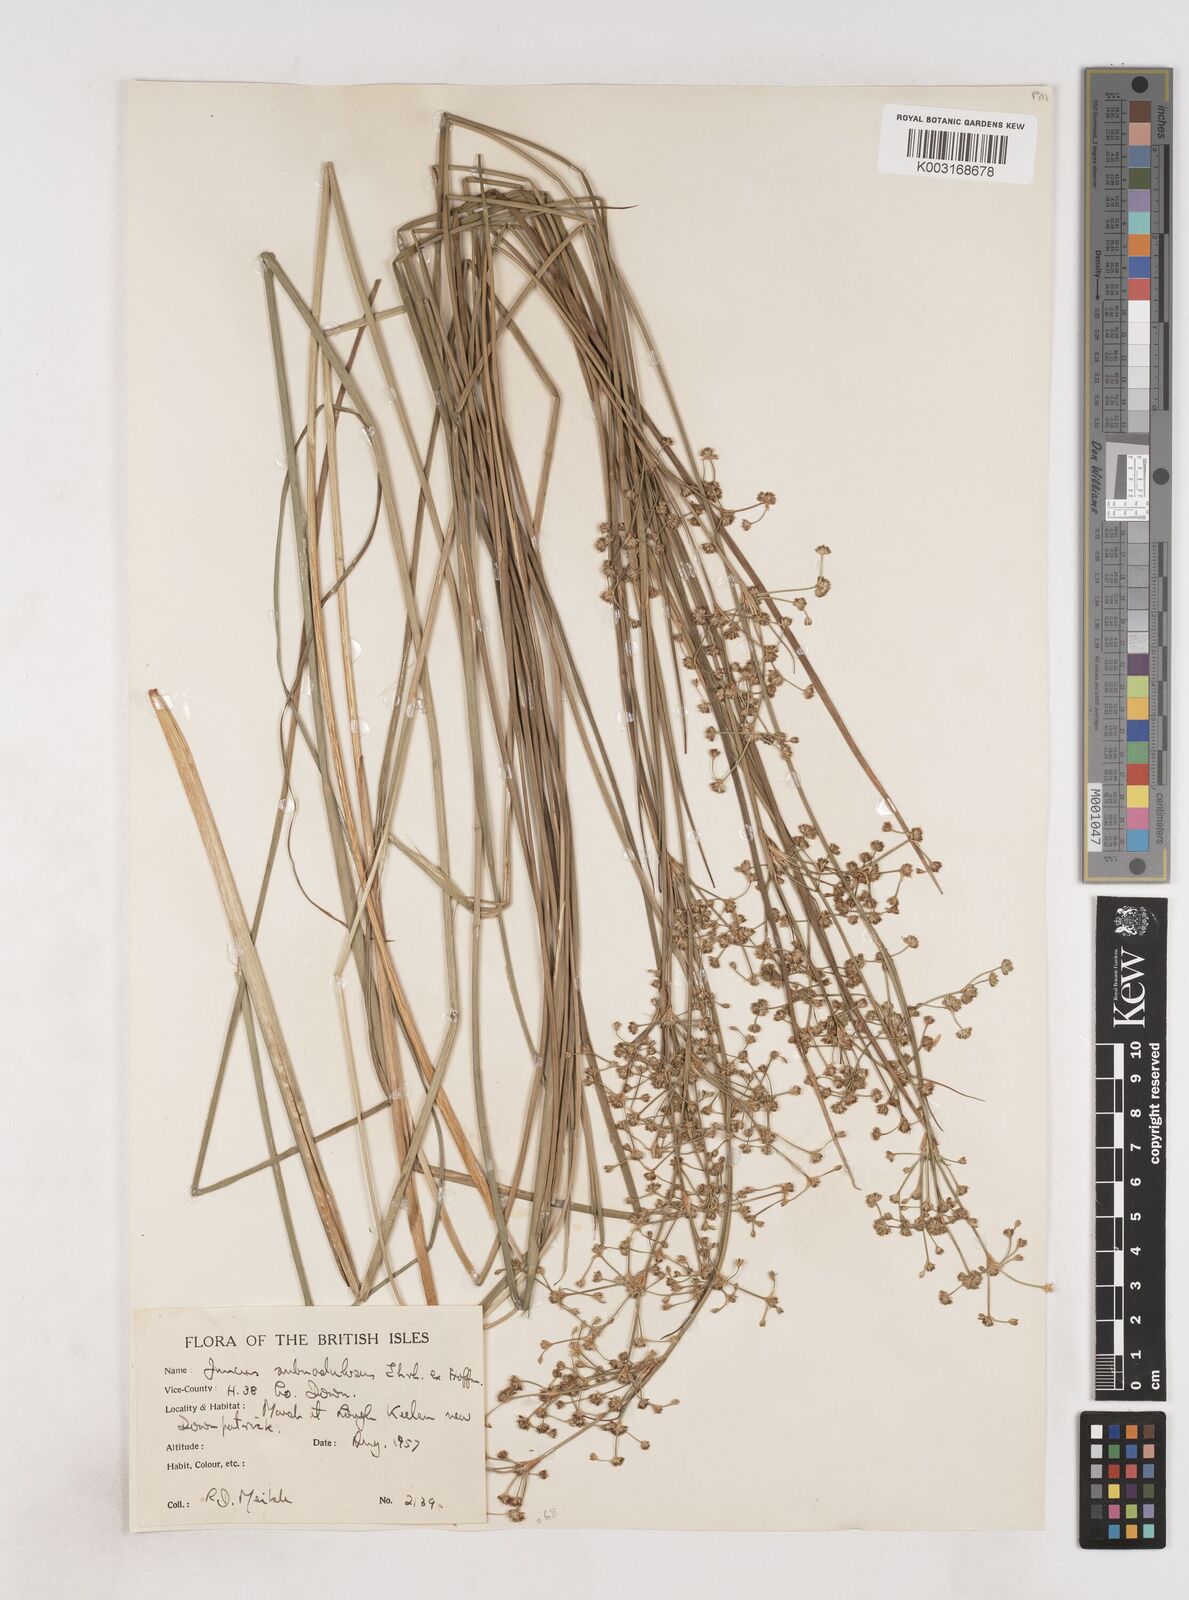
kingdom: Plantae
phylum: Tracheophyta
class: Liliopsida
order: Poales
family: Juncaceae
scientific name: Juncaceae
